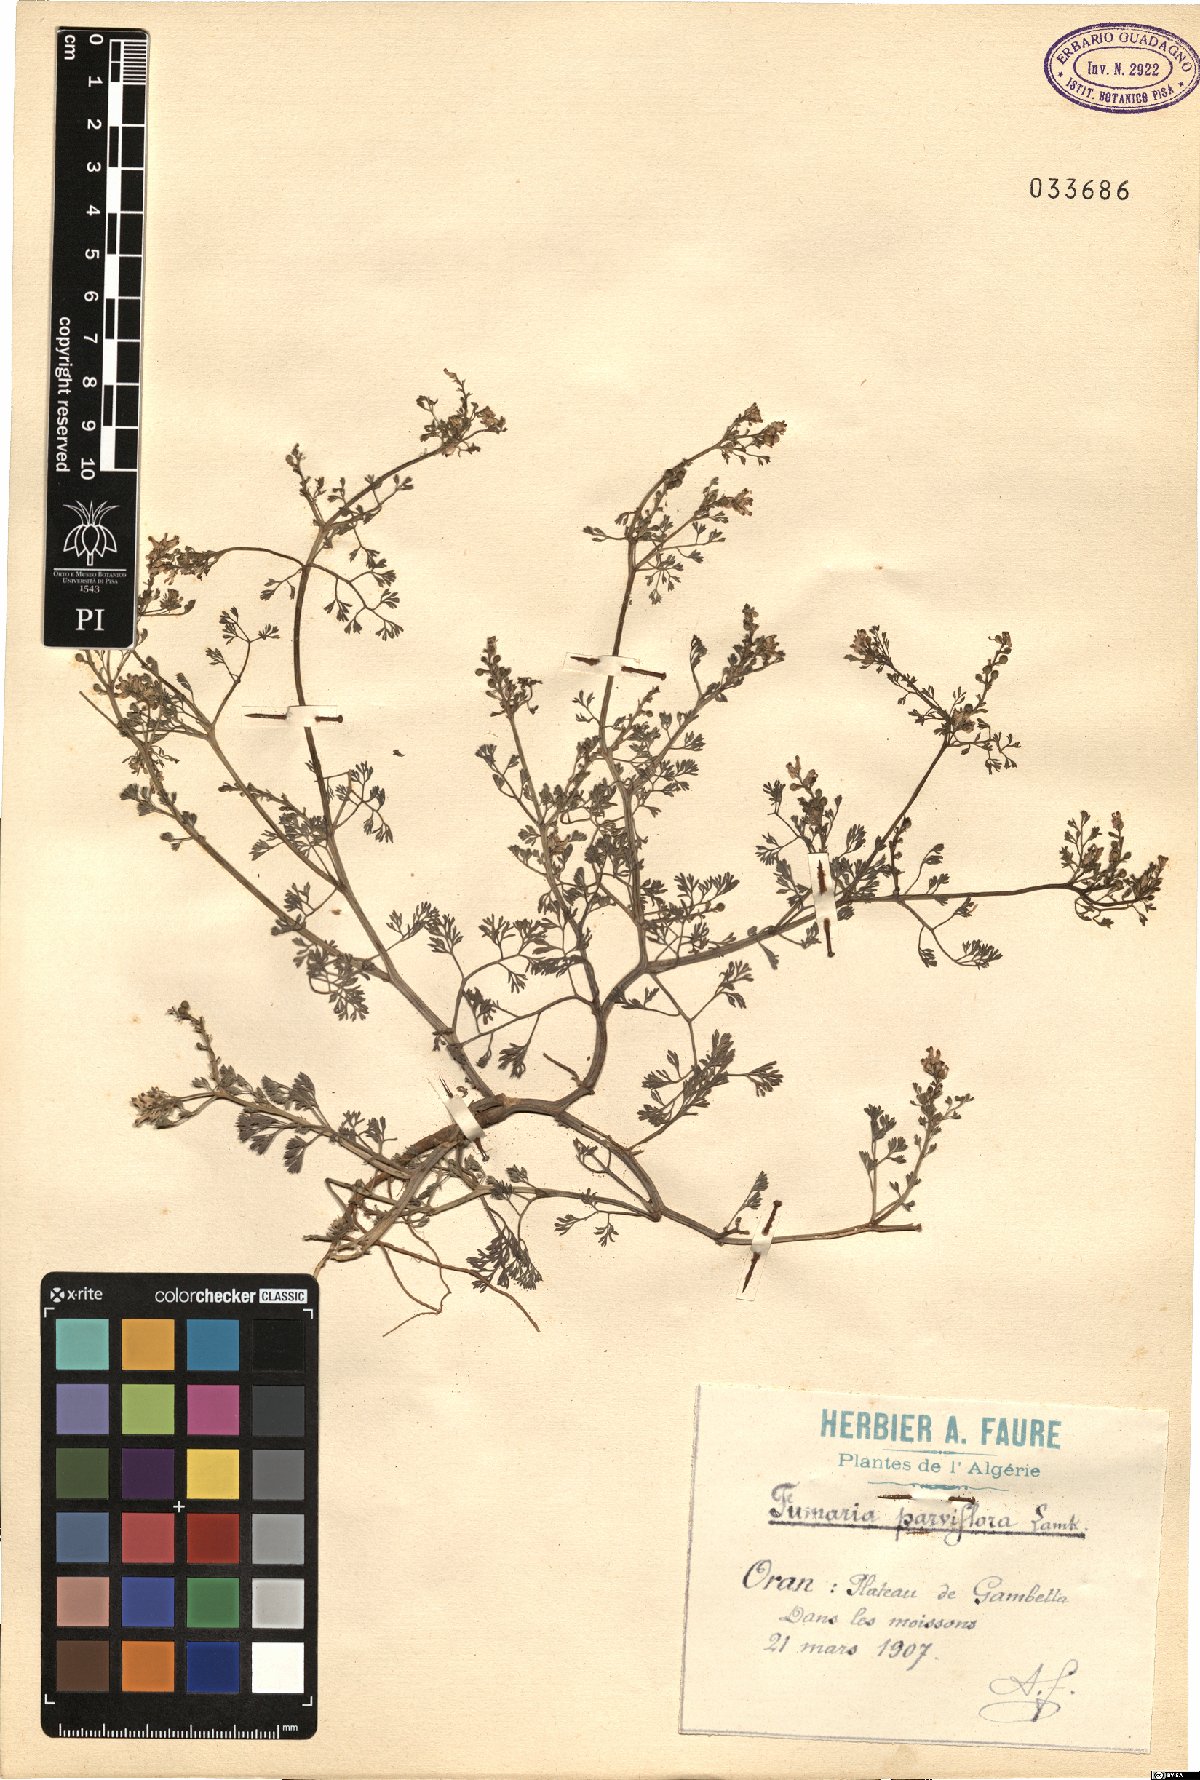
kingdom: Plantae
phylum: Tracheophyta
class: Magnoliopsida
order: Ranunculales
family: Papaveraceae
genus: Fumaria
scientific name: Fumaria parviflora
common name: Fine-leaved fumitory
